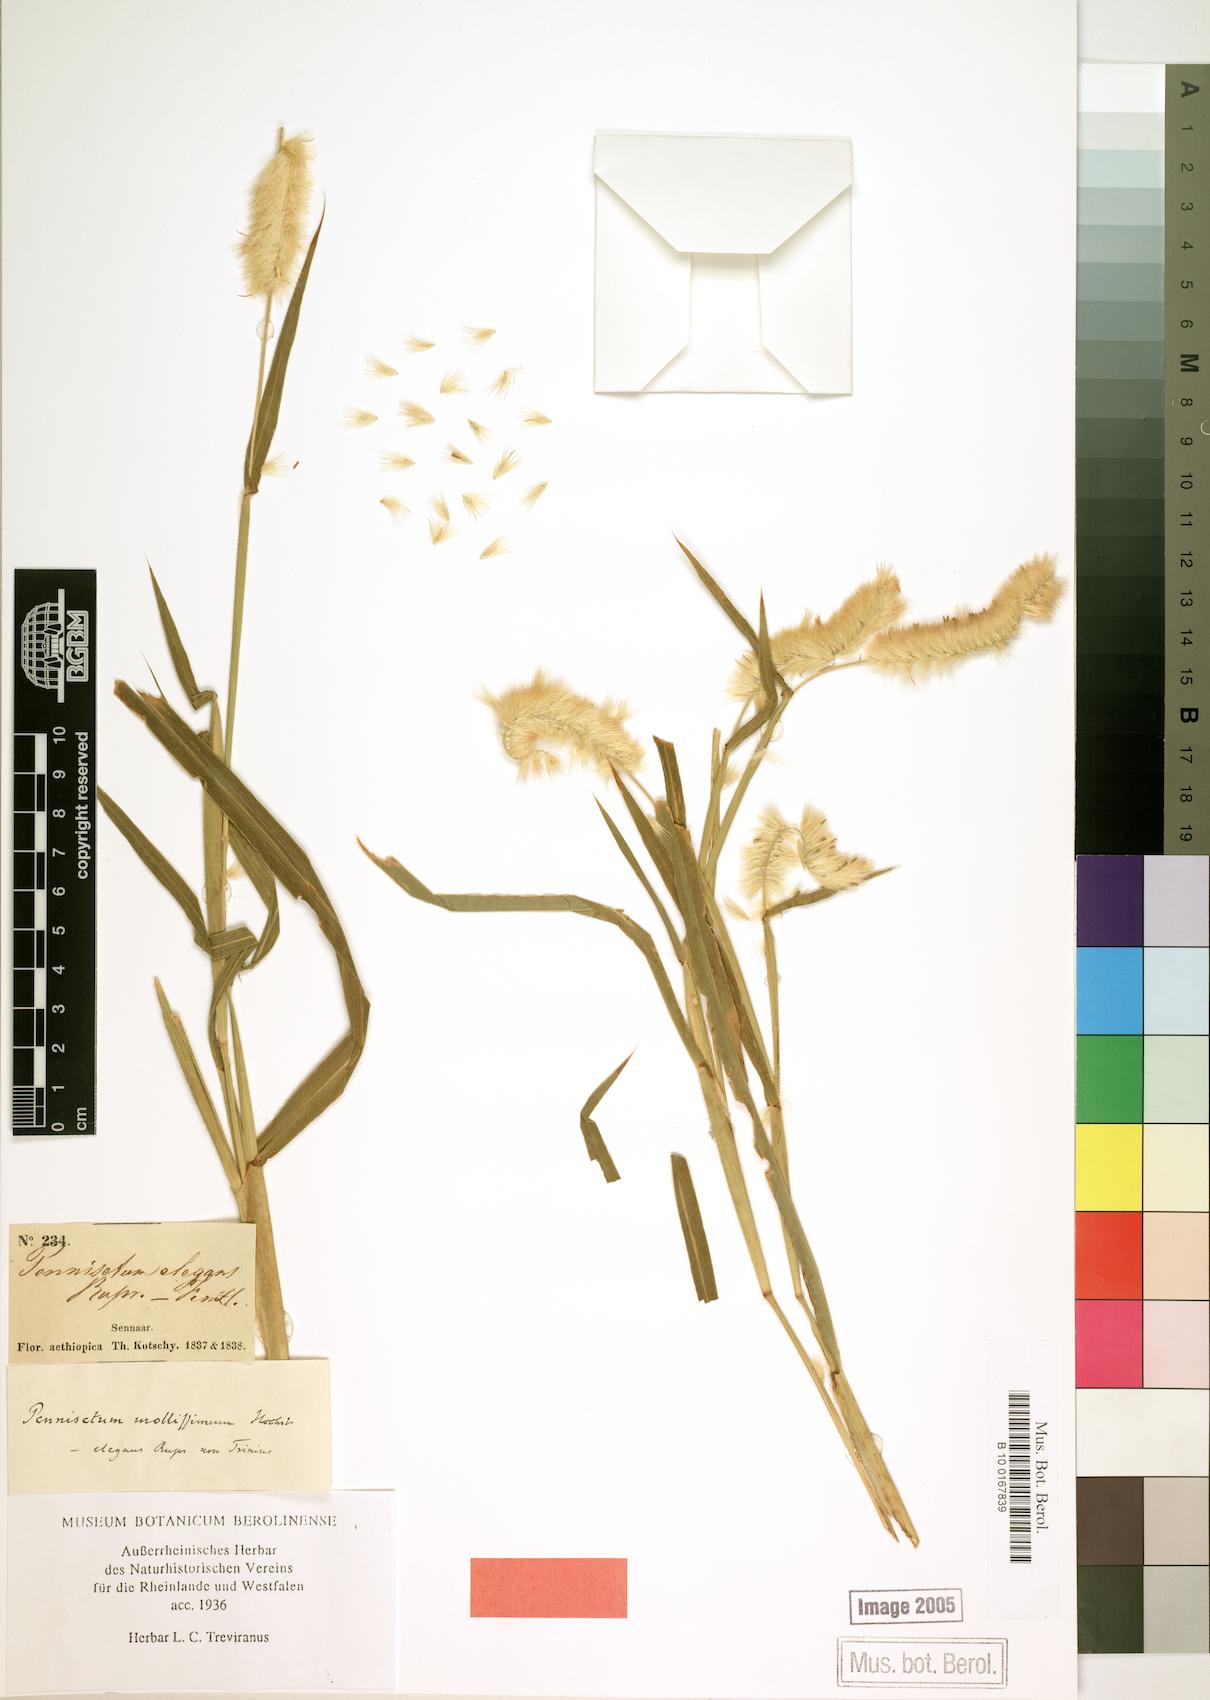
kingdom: Plantae
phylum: Tracheophyta
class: Liliopsida
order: Poales
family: Poaceae
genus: Cenchrus
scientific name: Cenchrus violaceus
